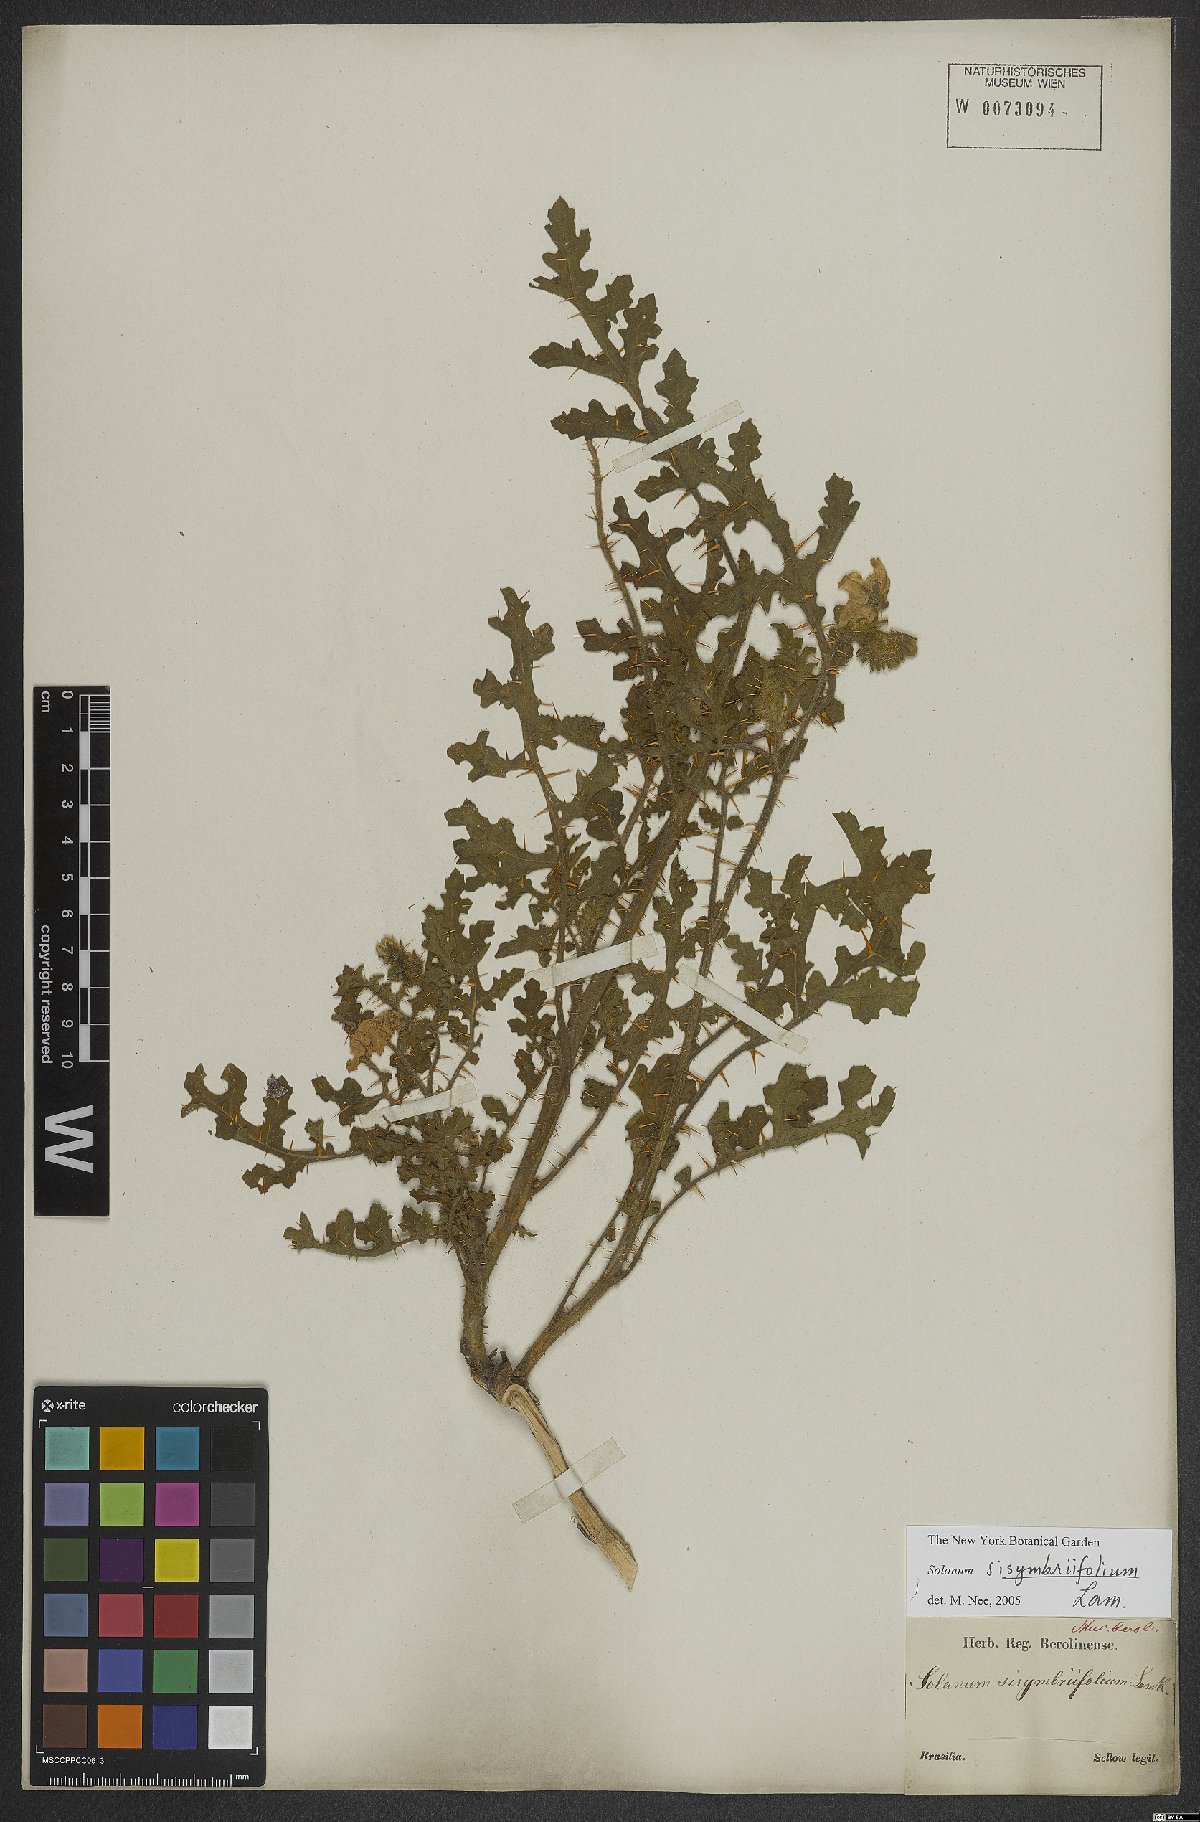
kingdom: Plantae
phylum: Tracheophyta
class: Magnoliopsida
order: Solanales
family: Solanaceae
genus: Solanum
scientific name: Solanum sisymbriifolium
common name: Red buffalo-bur
